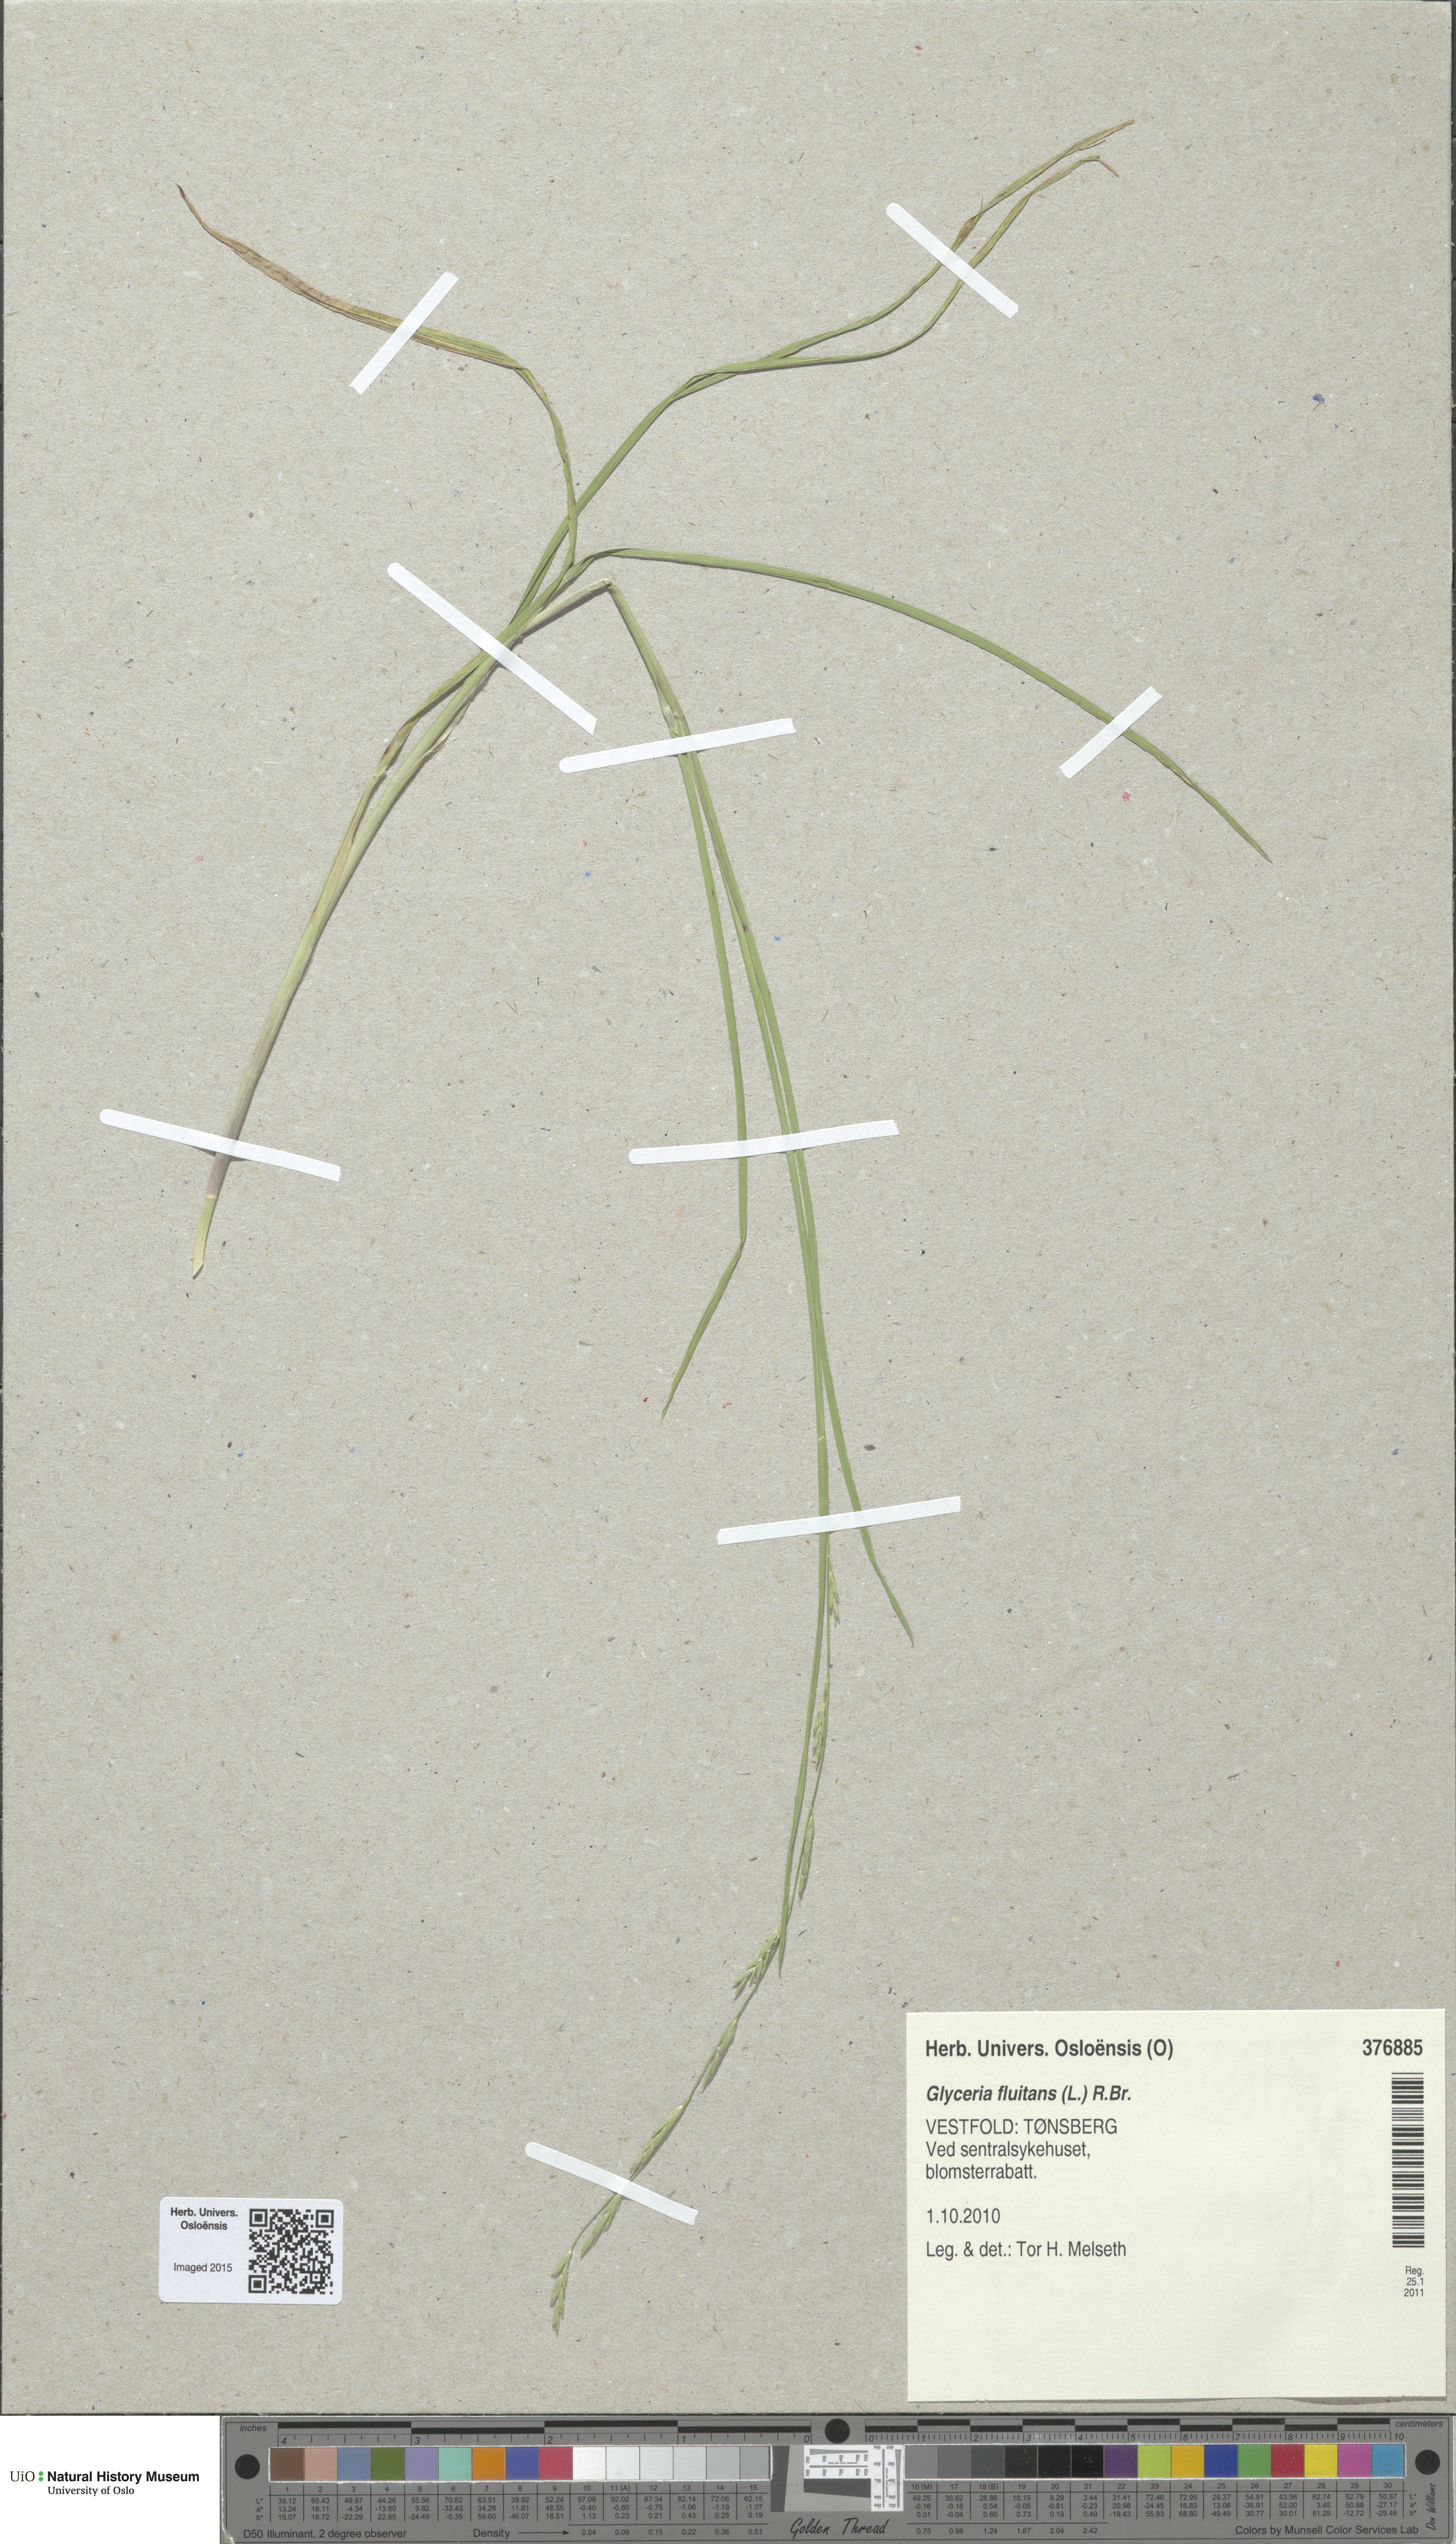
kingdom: Plantae
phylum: Tracheophyta
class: Liliopsida
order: Poales
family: Poaceae
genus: Glyceria
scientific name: Glyceria fluitans
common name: Floating sweet-grass
